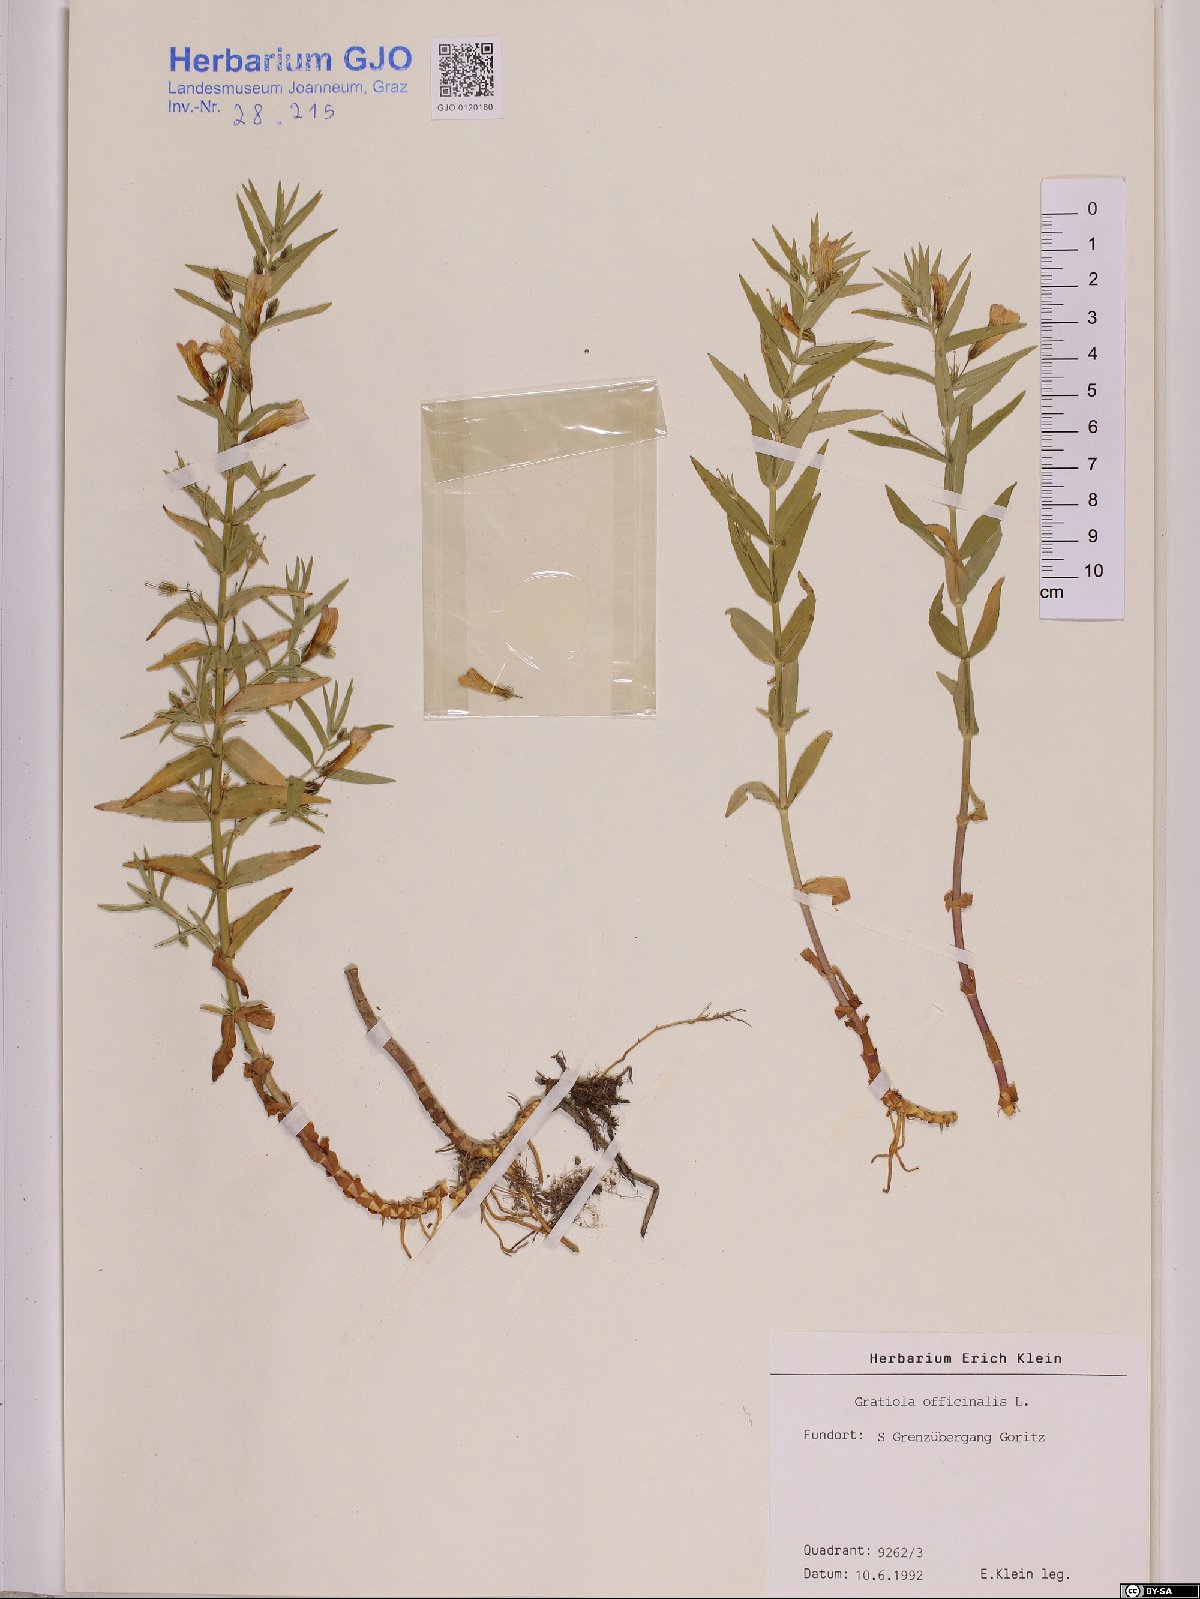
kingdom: Plantae
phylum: Tracheophyta
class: Magnoliopsida
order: Lamiales
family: Plantaginaceae
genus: Gratiola
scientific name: Gratiola officinalis
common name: Gratiola
